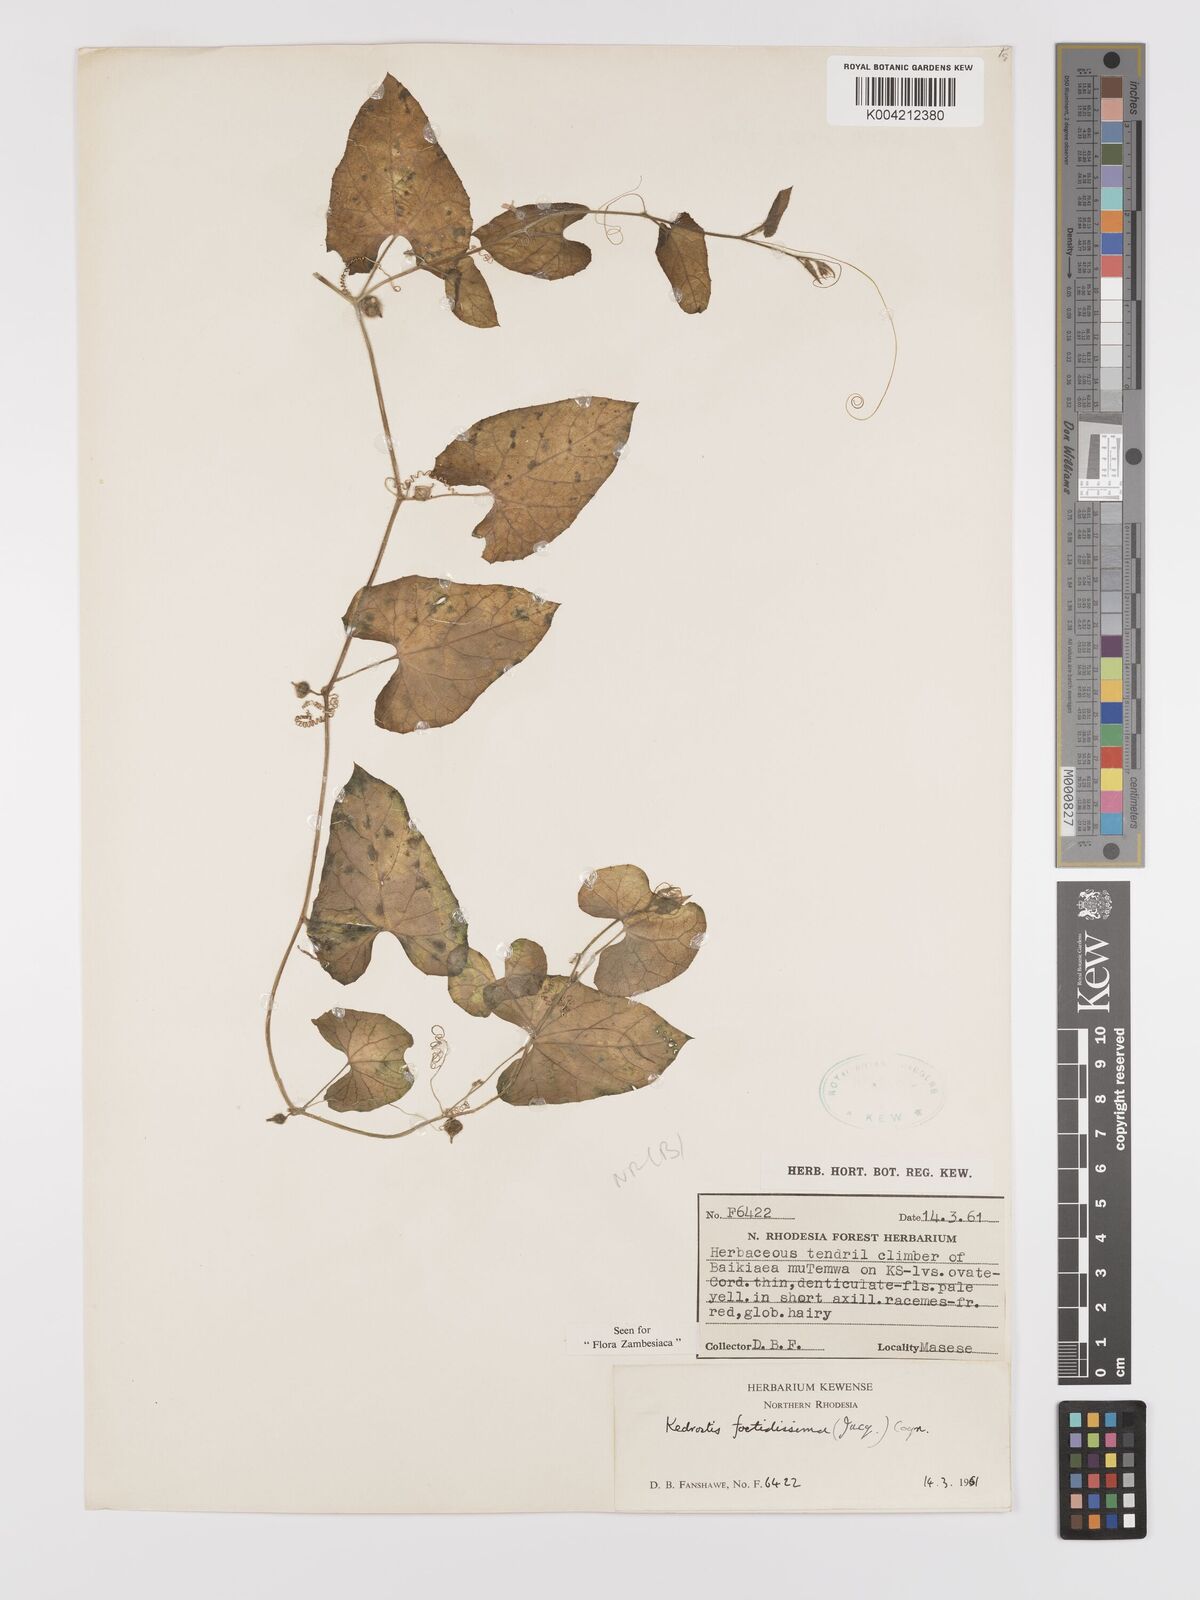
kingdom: Plantae
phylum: Tracheophyta
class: Magnoliopsida
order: Cucurbitales
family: Cucurbitaceae
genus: Kedrostis
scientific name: Kedrostis foetidissima
